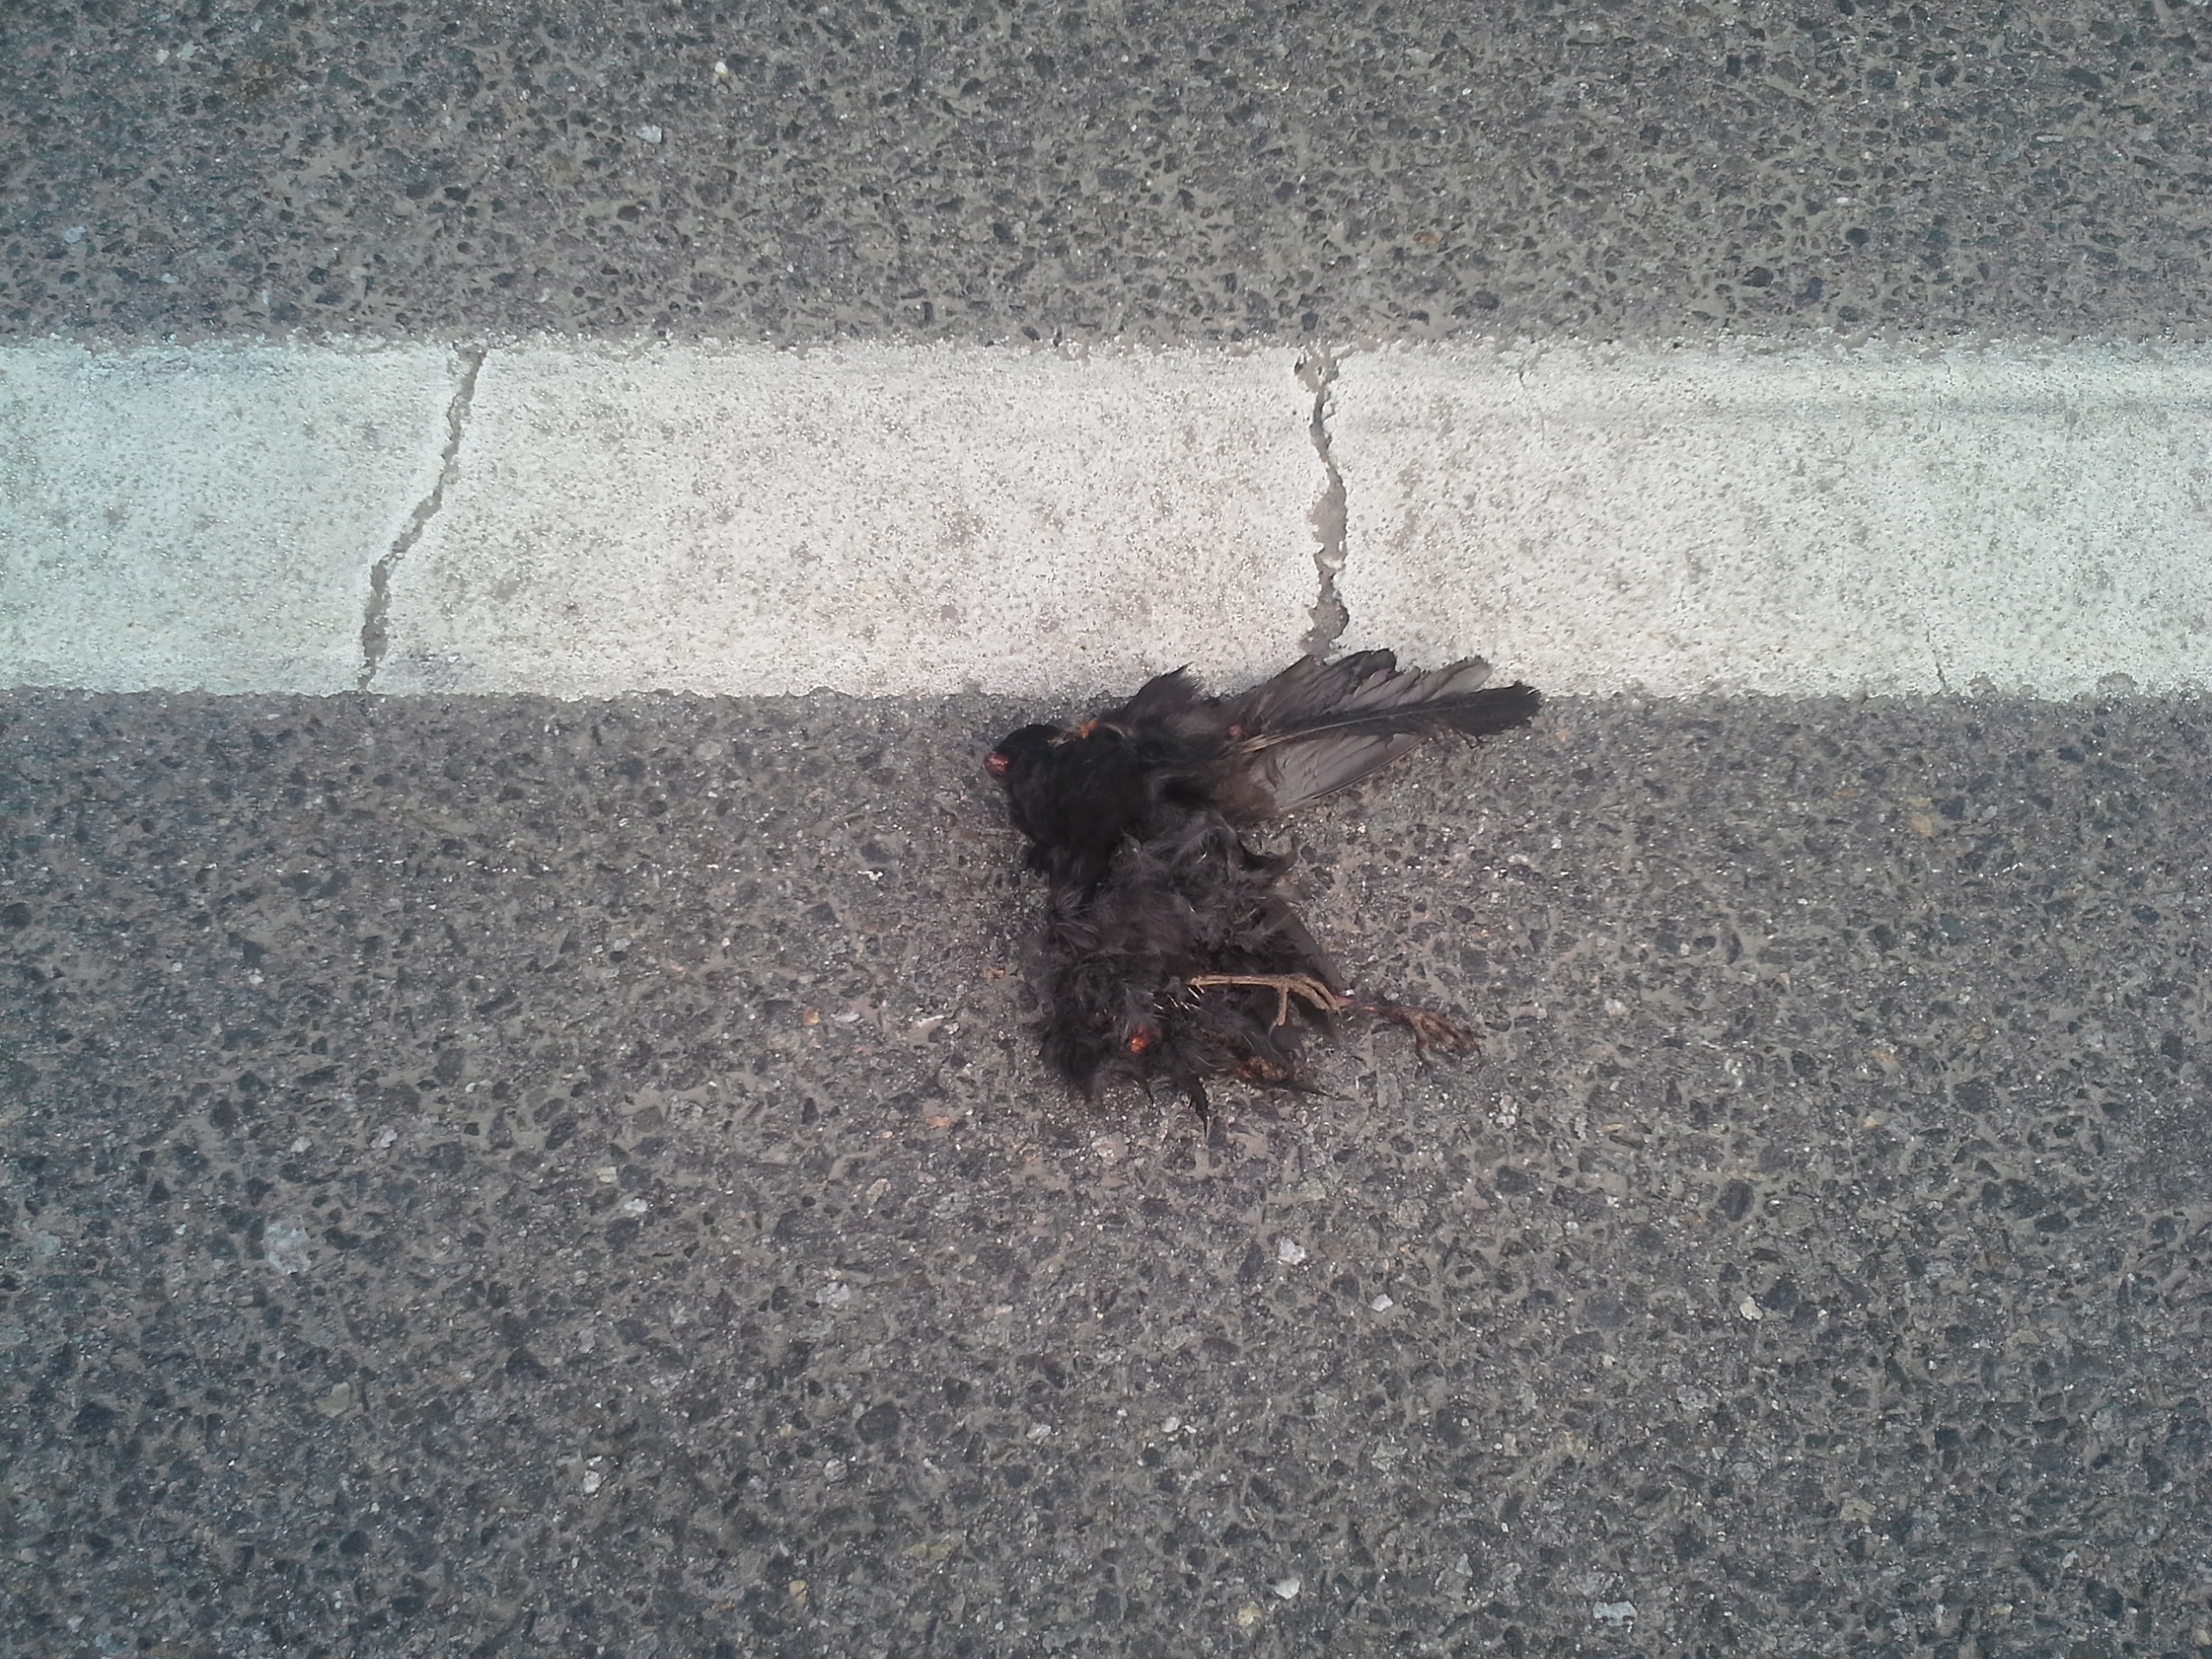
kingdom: Animalia
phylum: Chordata
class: Aves
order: Passeriformes
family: Turdidae
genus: Turdus
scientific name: Turdus merula
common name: Common blackbird
